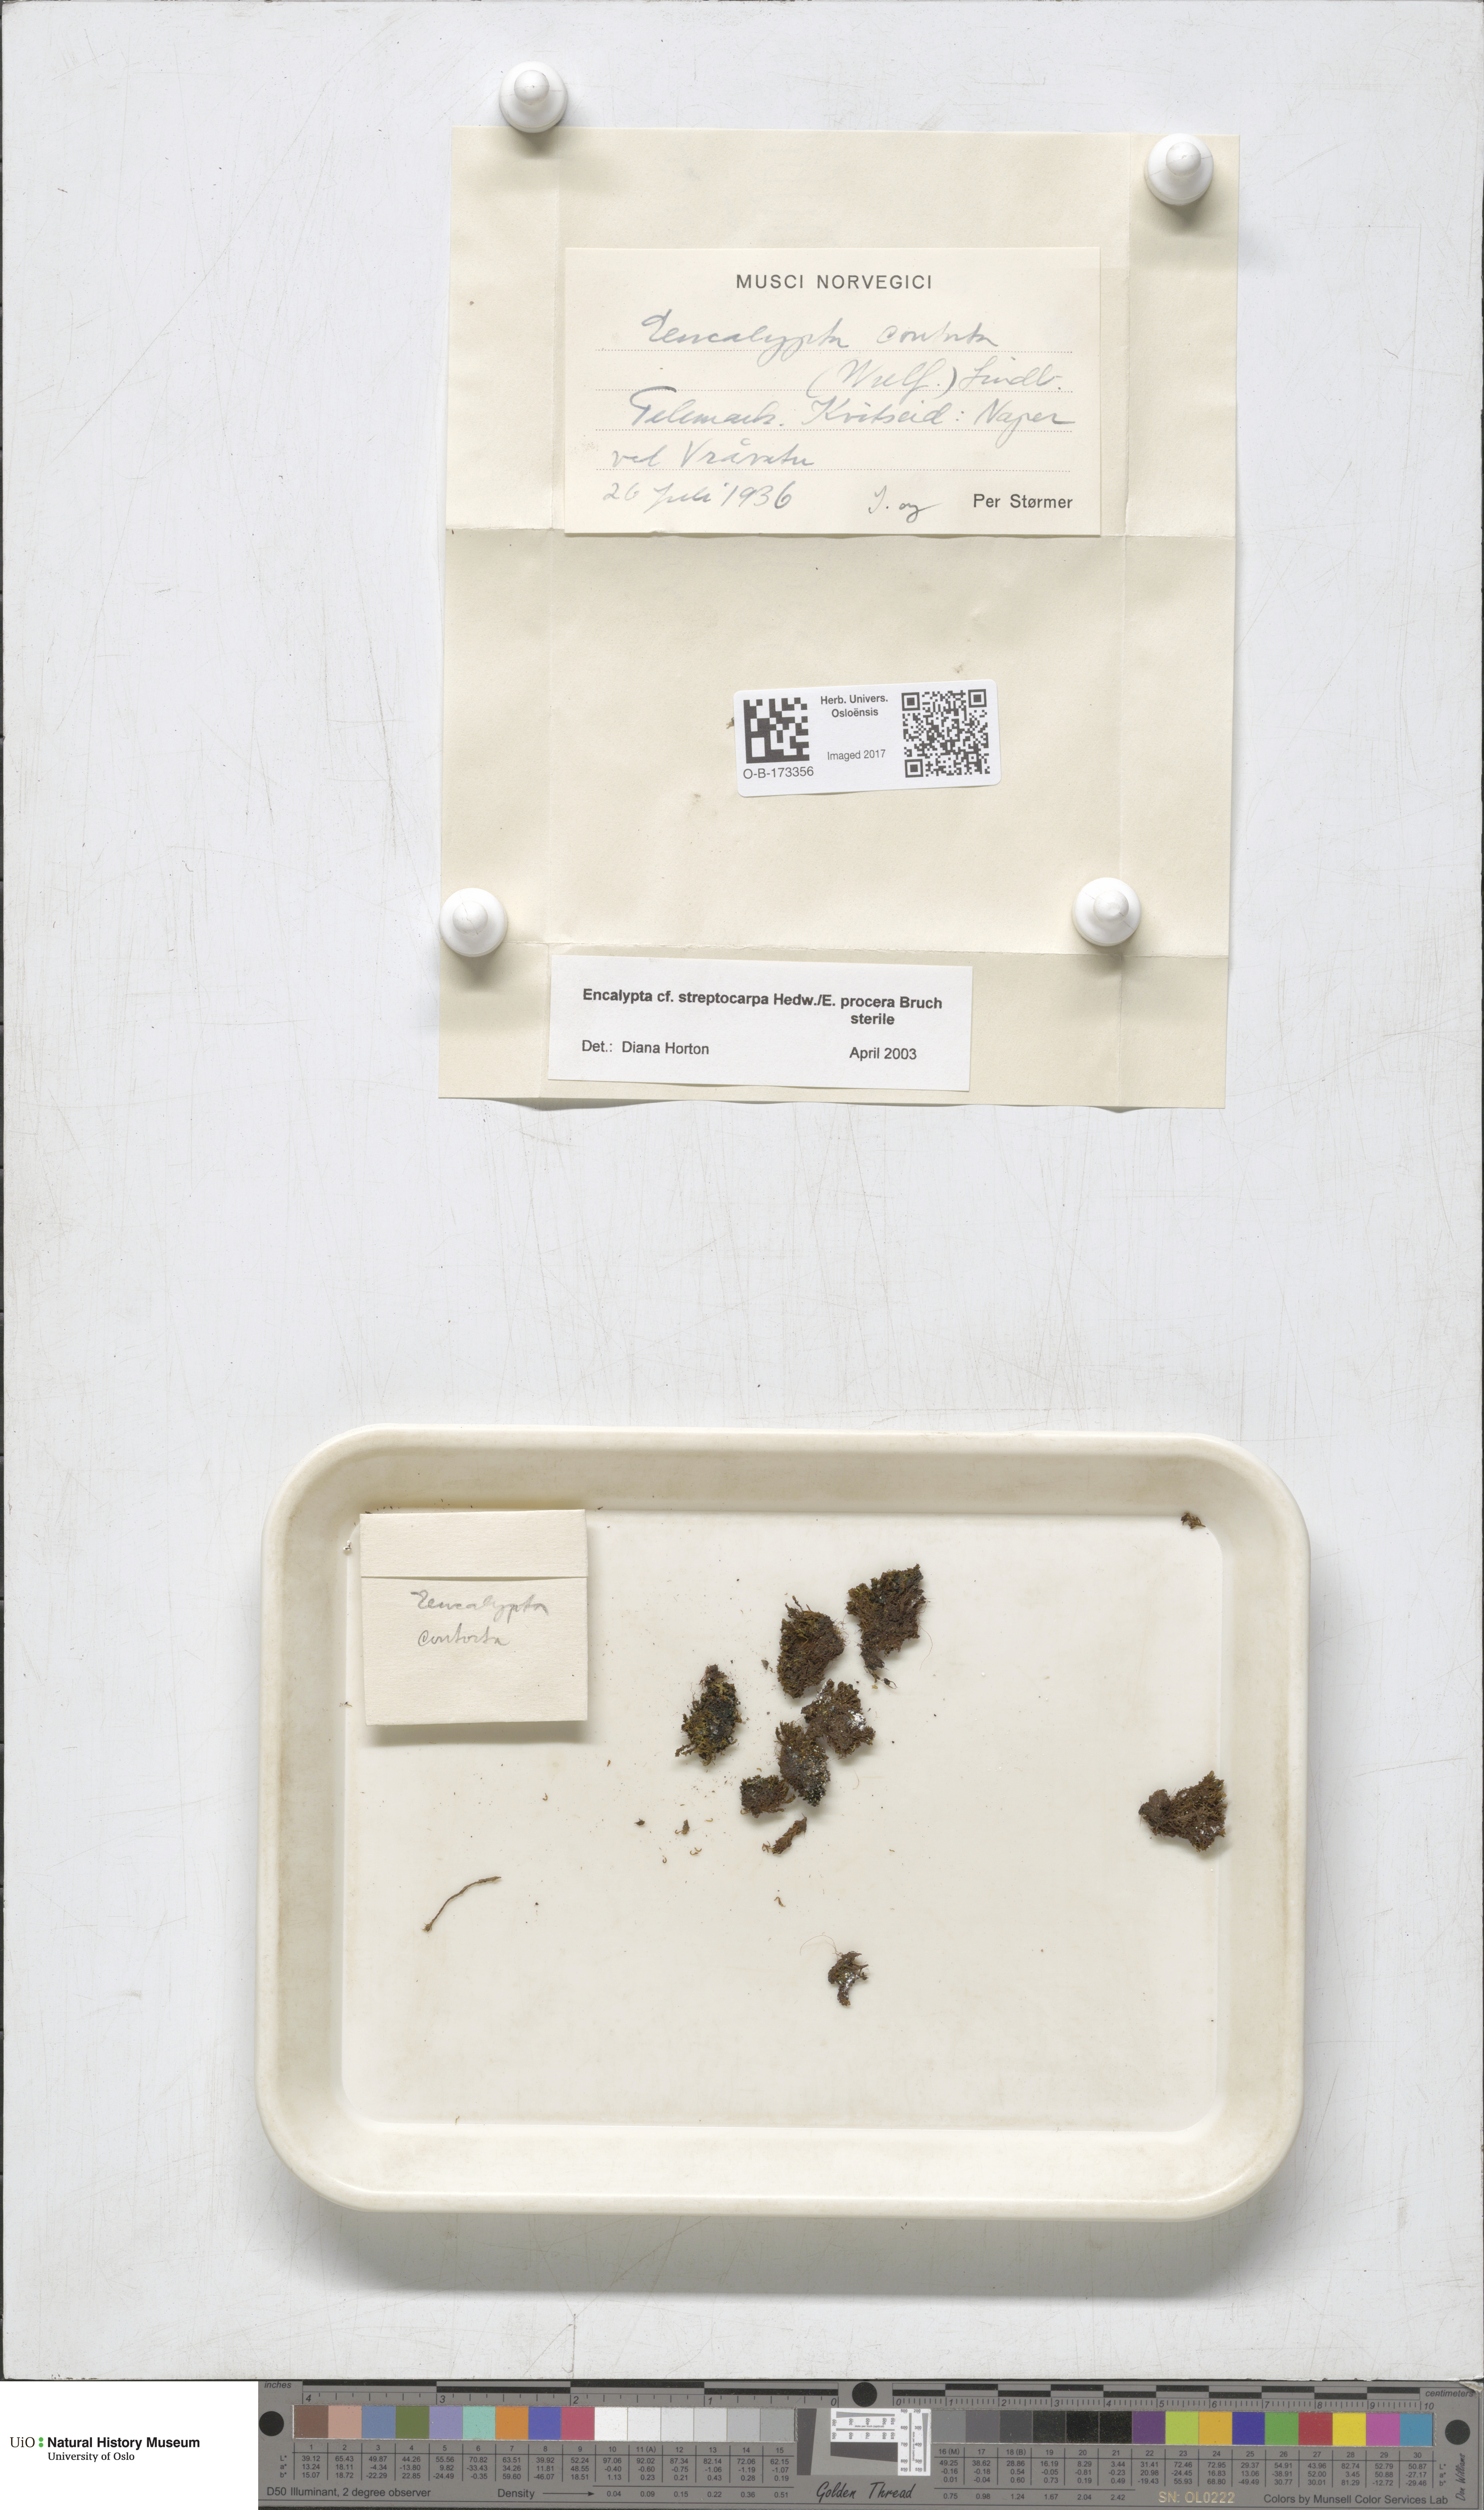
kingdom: Plantae
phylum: Bryophyta
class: Bryopsida
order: Encalyptales
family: Encalyptaceae
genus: Encalypta
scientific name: Encalypta
